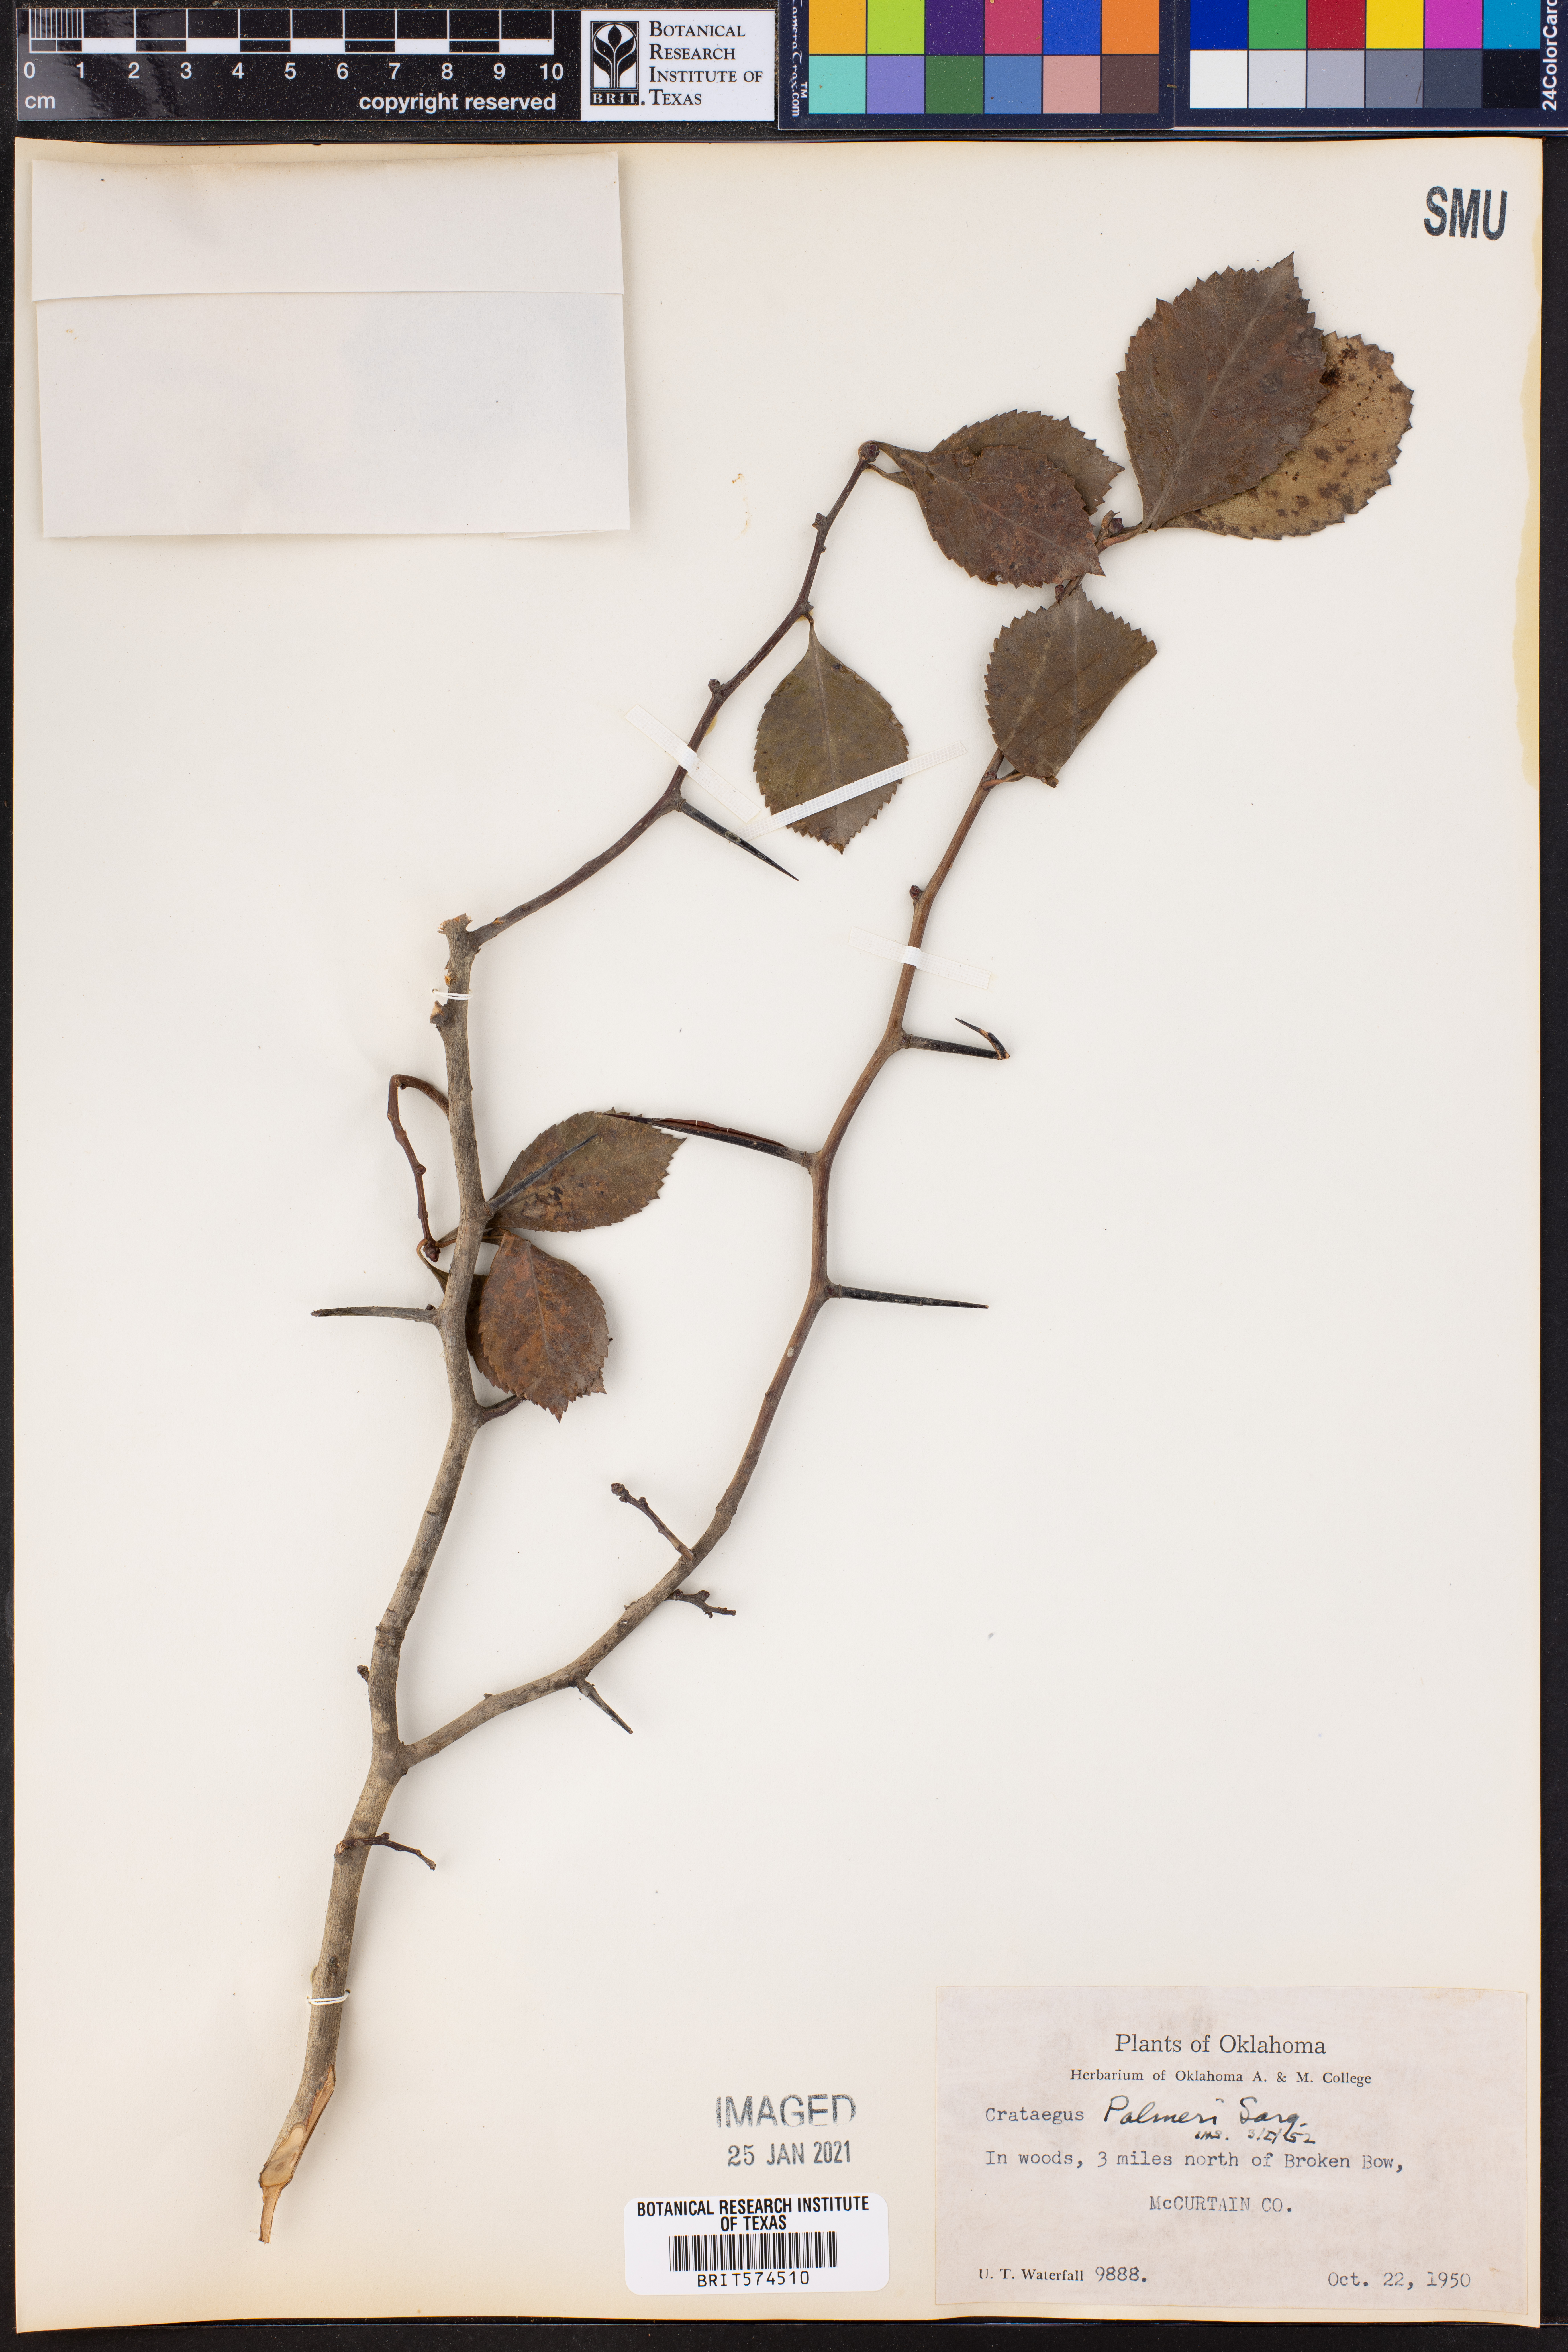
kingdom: Plantae
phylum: Tracheophyta
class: Magnoliopsida
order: Rosales
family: Rosaceae
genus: Crataegus
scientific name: Crataegus reverchonii
